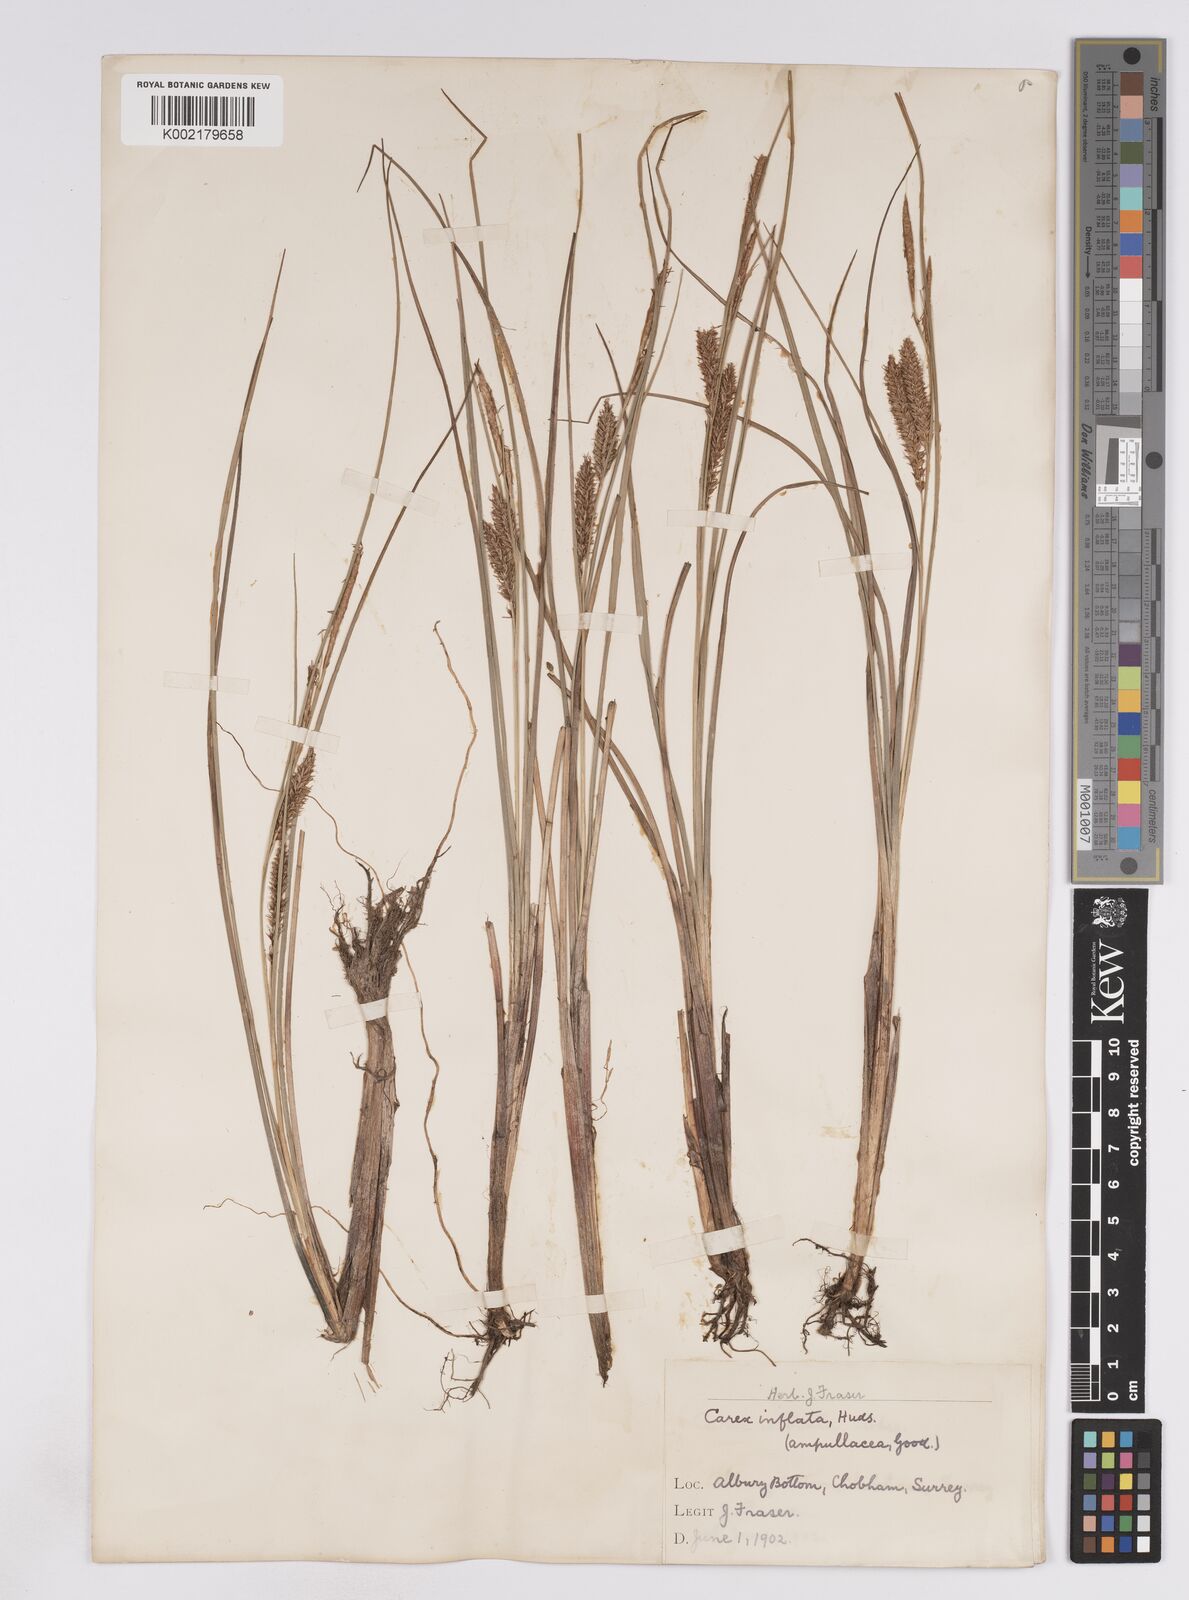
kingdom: Plantae
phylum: Tracheophyta
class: Liliopsida
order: Poales
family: Cyperaceae
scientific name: Cyperaceae
